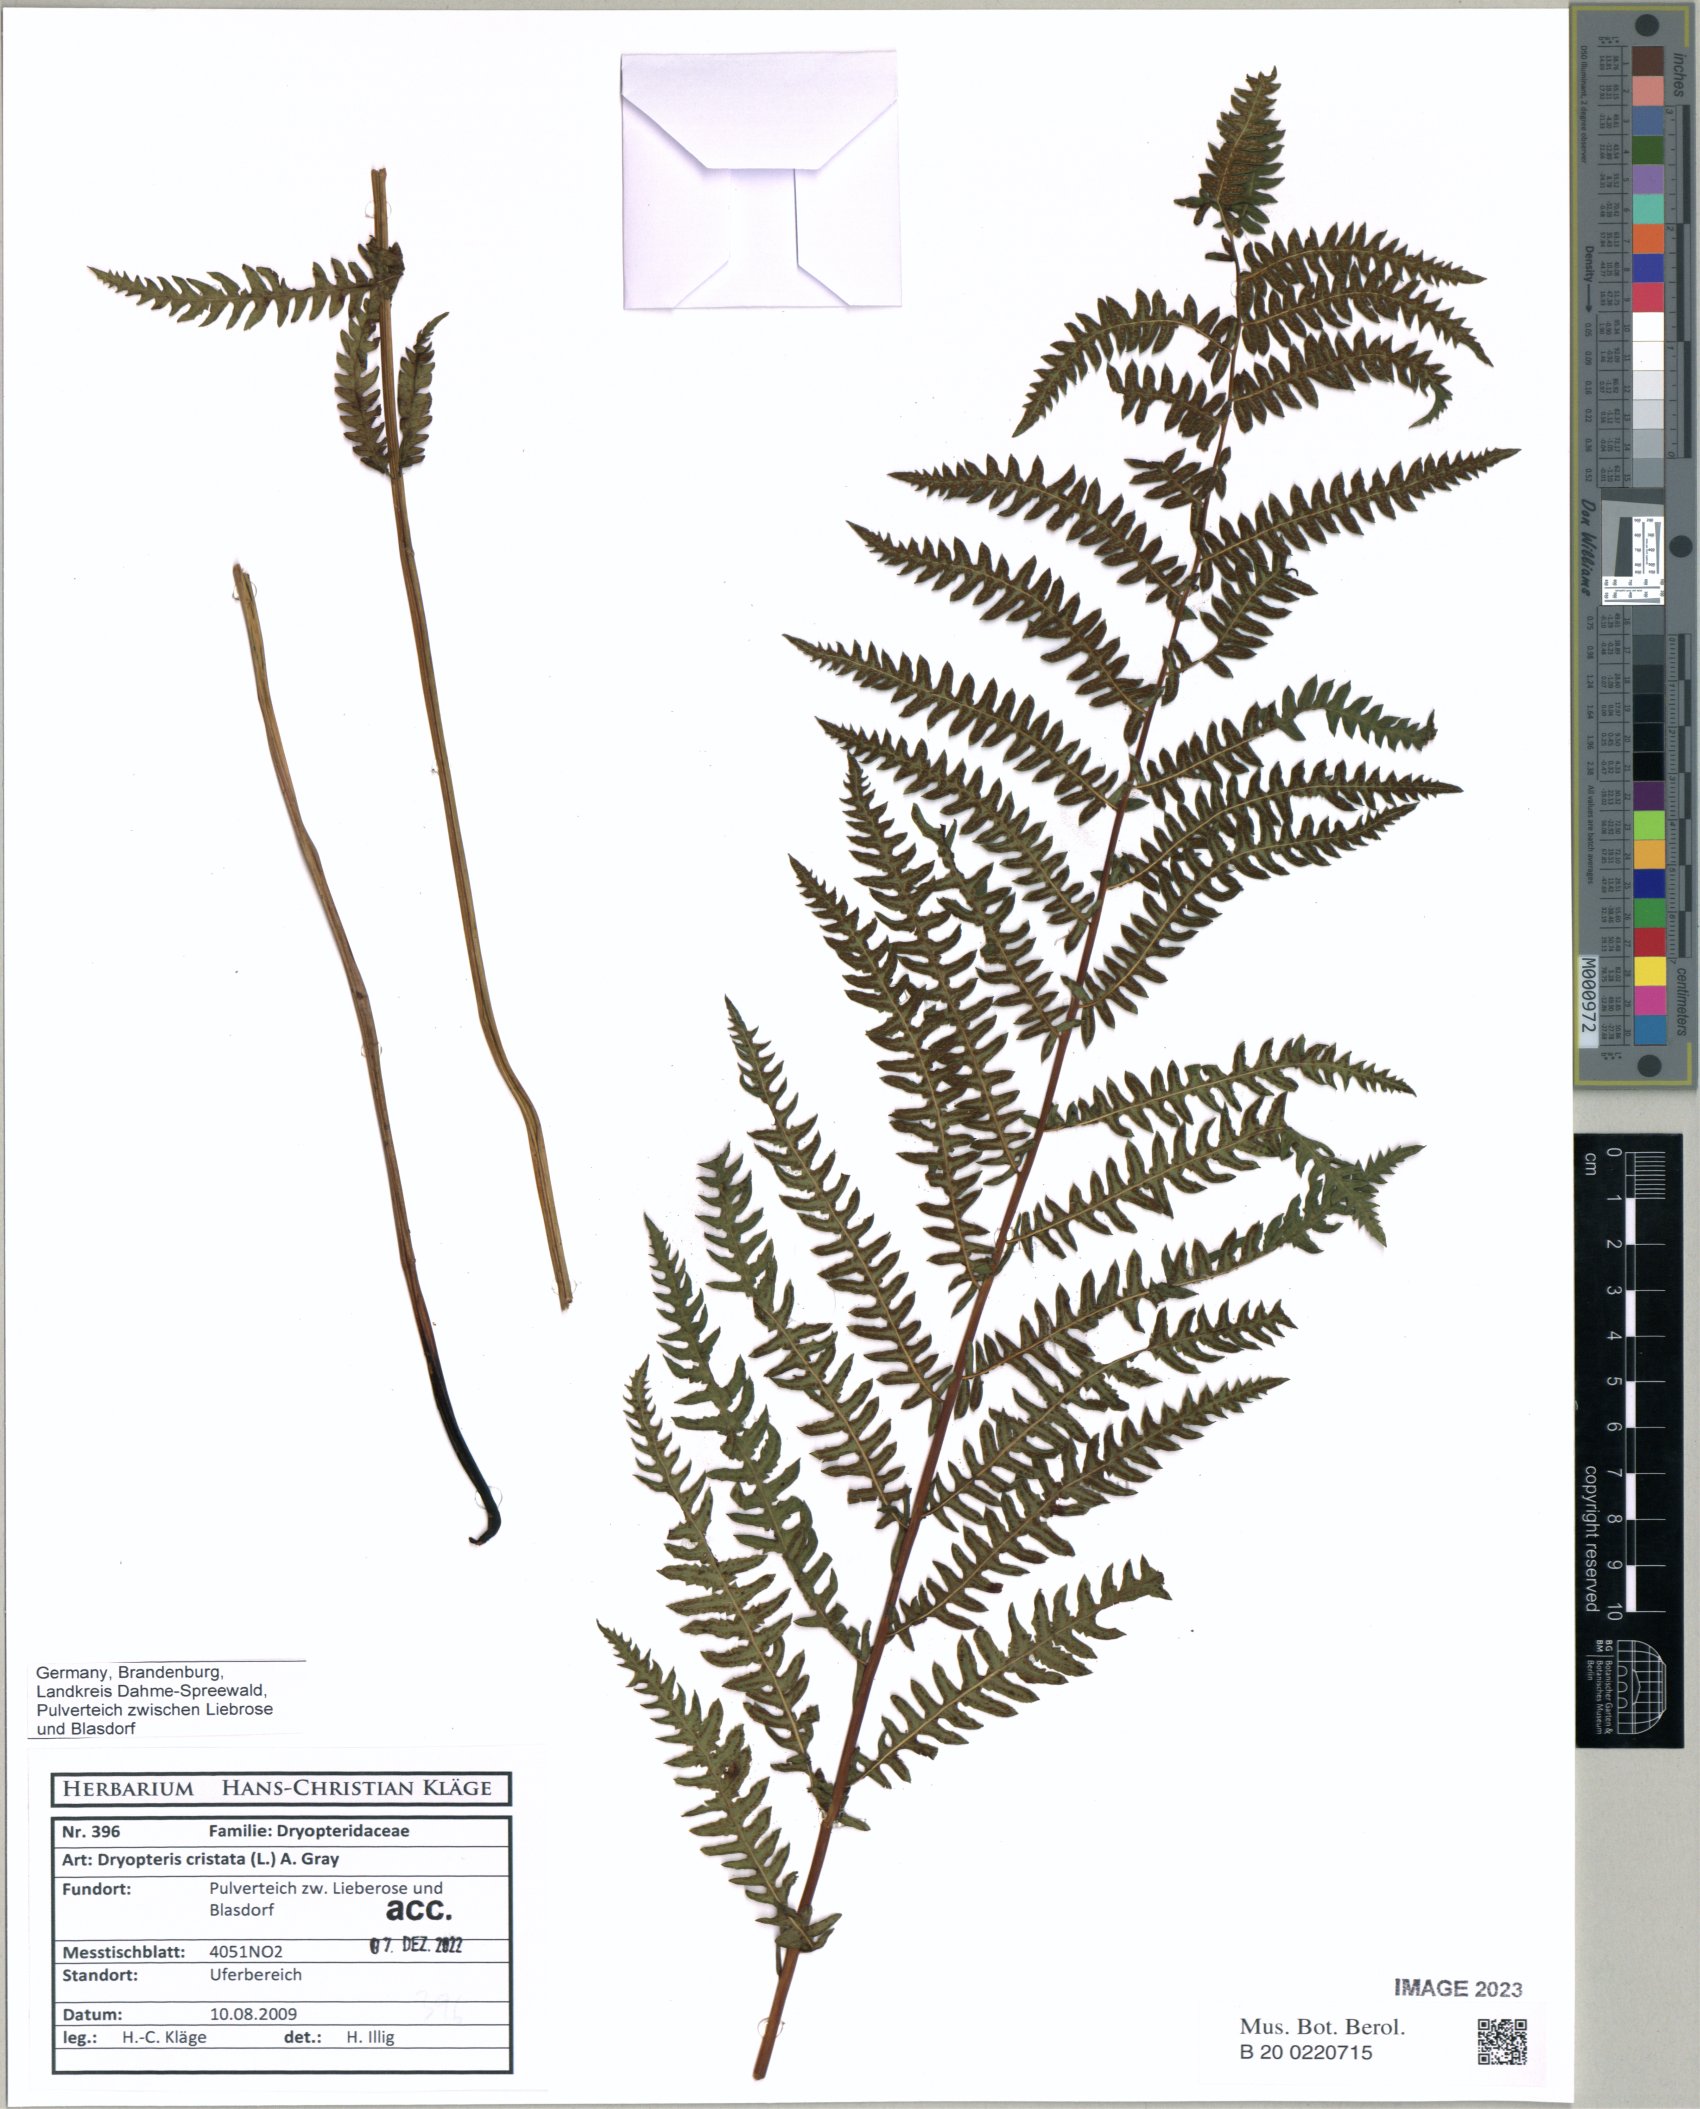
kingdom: Plantae
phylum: Tracheophyta
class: Polypodiopsida
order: Polypodiales
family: Dryopteridaceae
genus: Dryopteris
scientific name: Dryopteris cristata
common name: Crested wood fern
